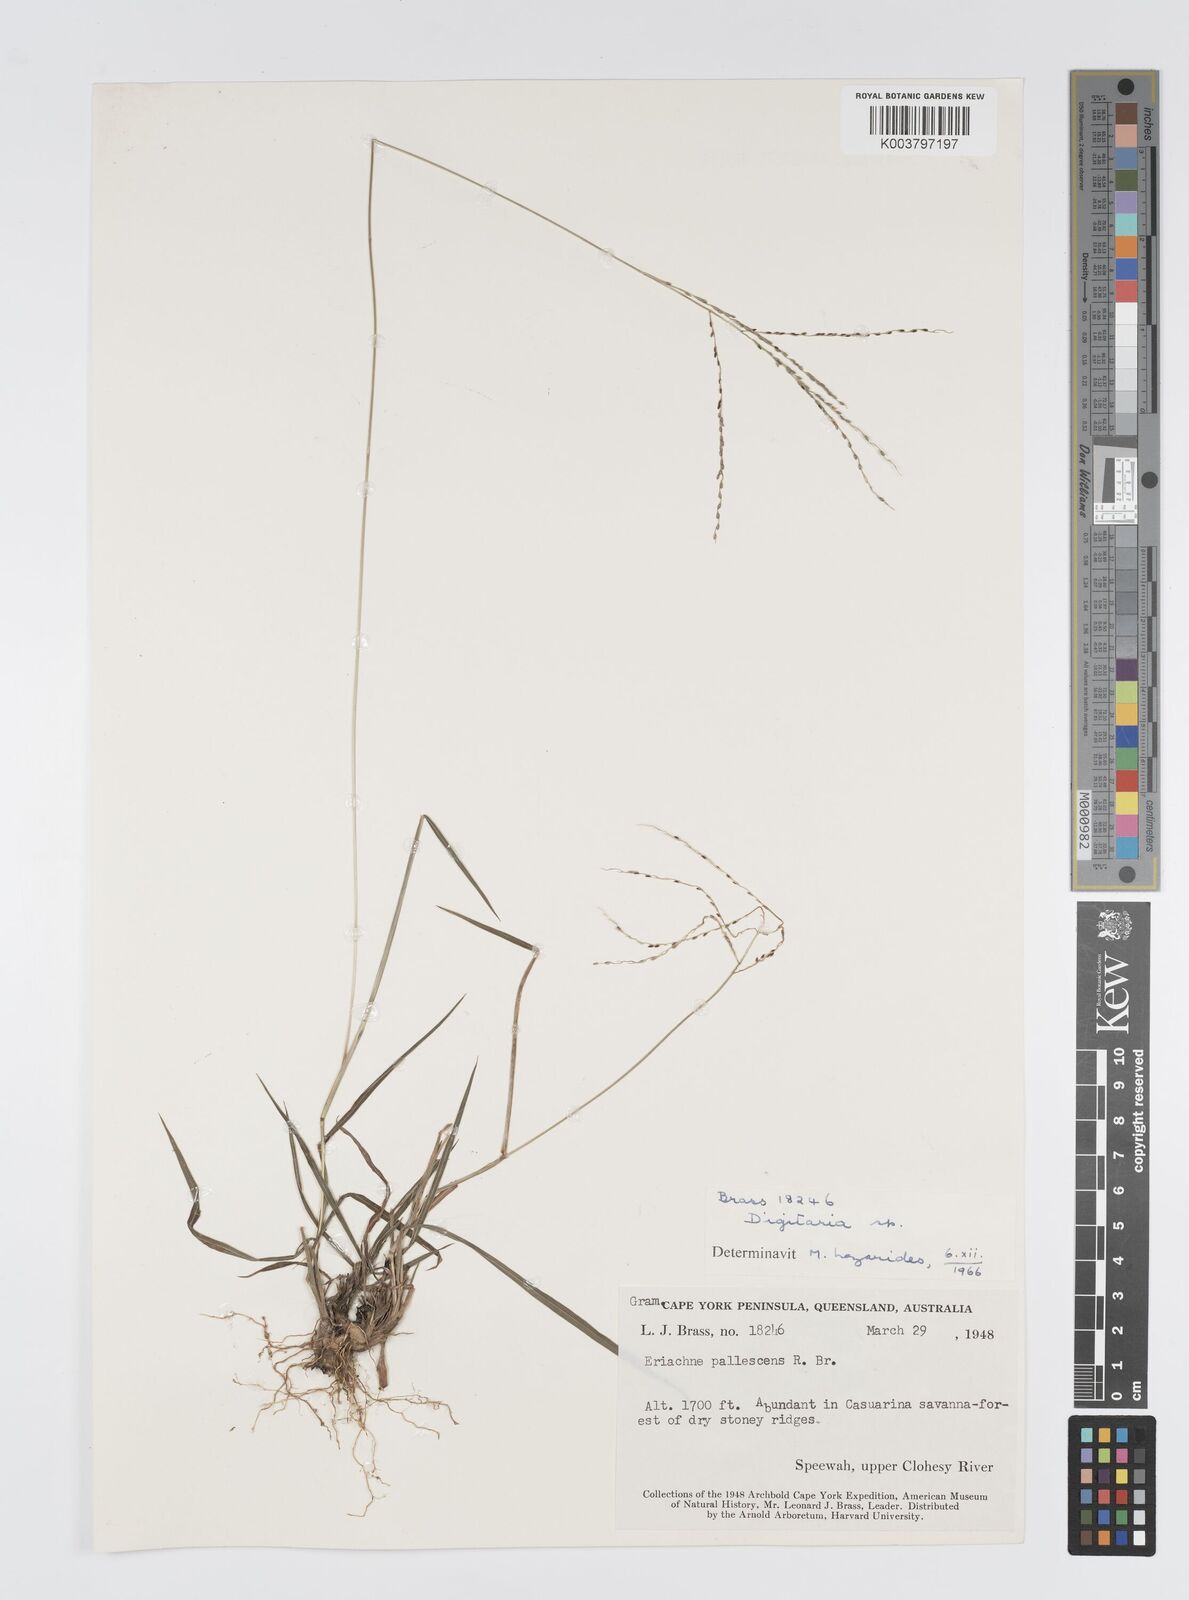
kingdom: Plantae
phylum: Tracheophyta
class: Liliopsida
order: Poales
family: Poaceae
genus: Digitaria
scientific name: Digitaria spec
